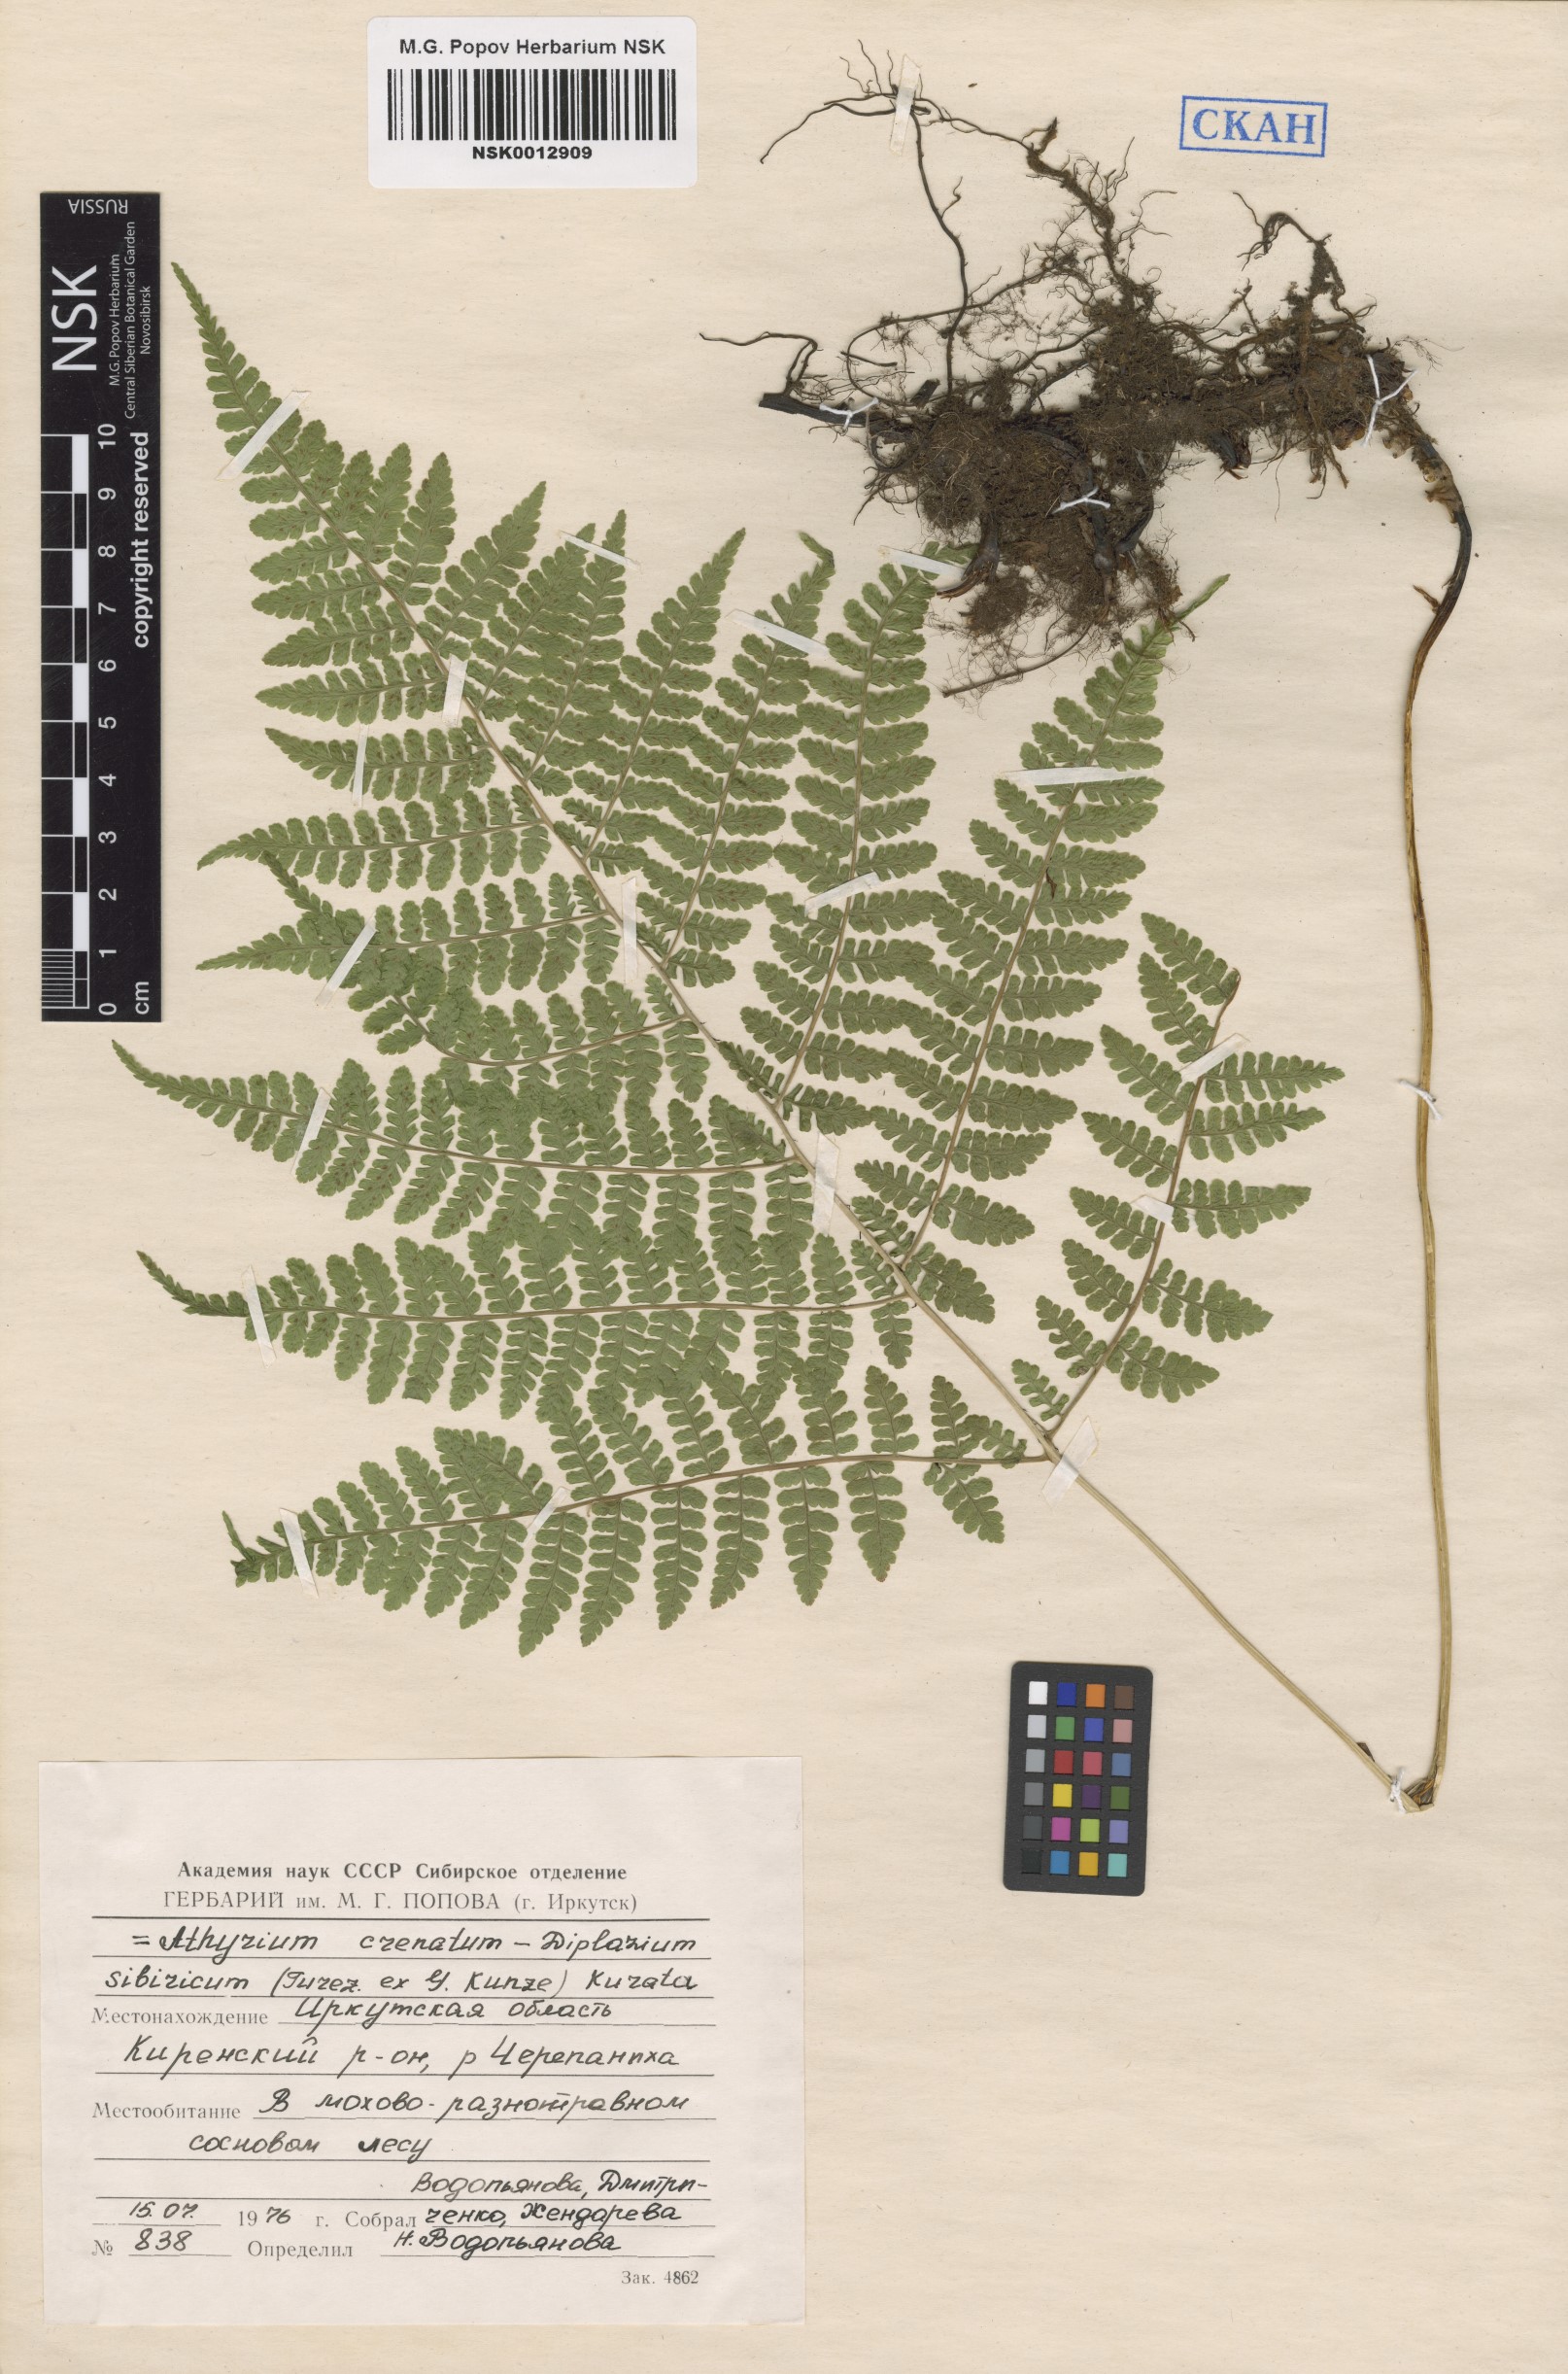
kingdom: Plantae
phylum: Tracheophyta
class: Polypodiopsida
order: Polypodiales
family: Athyriaceae
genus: Diplazium
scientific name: Diplazium sibiricum
